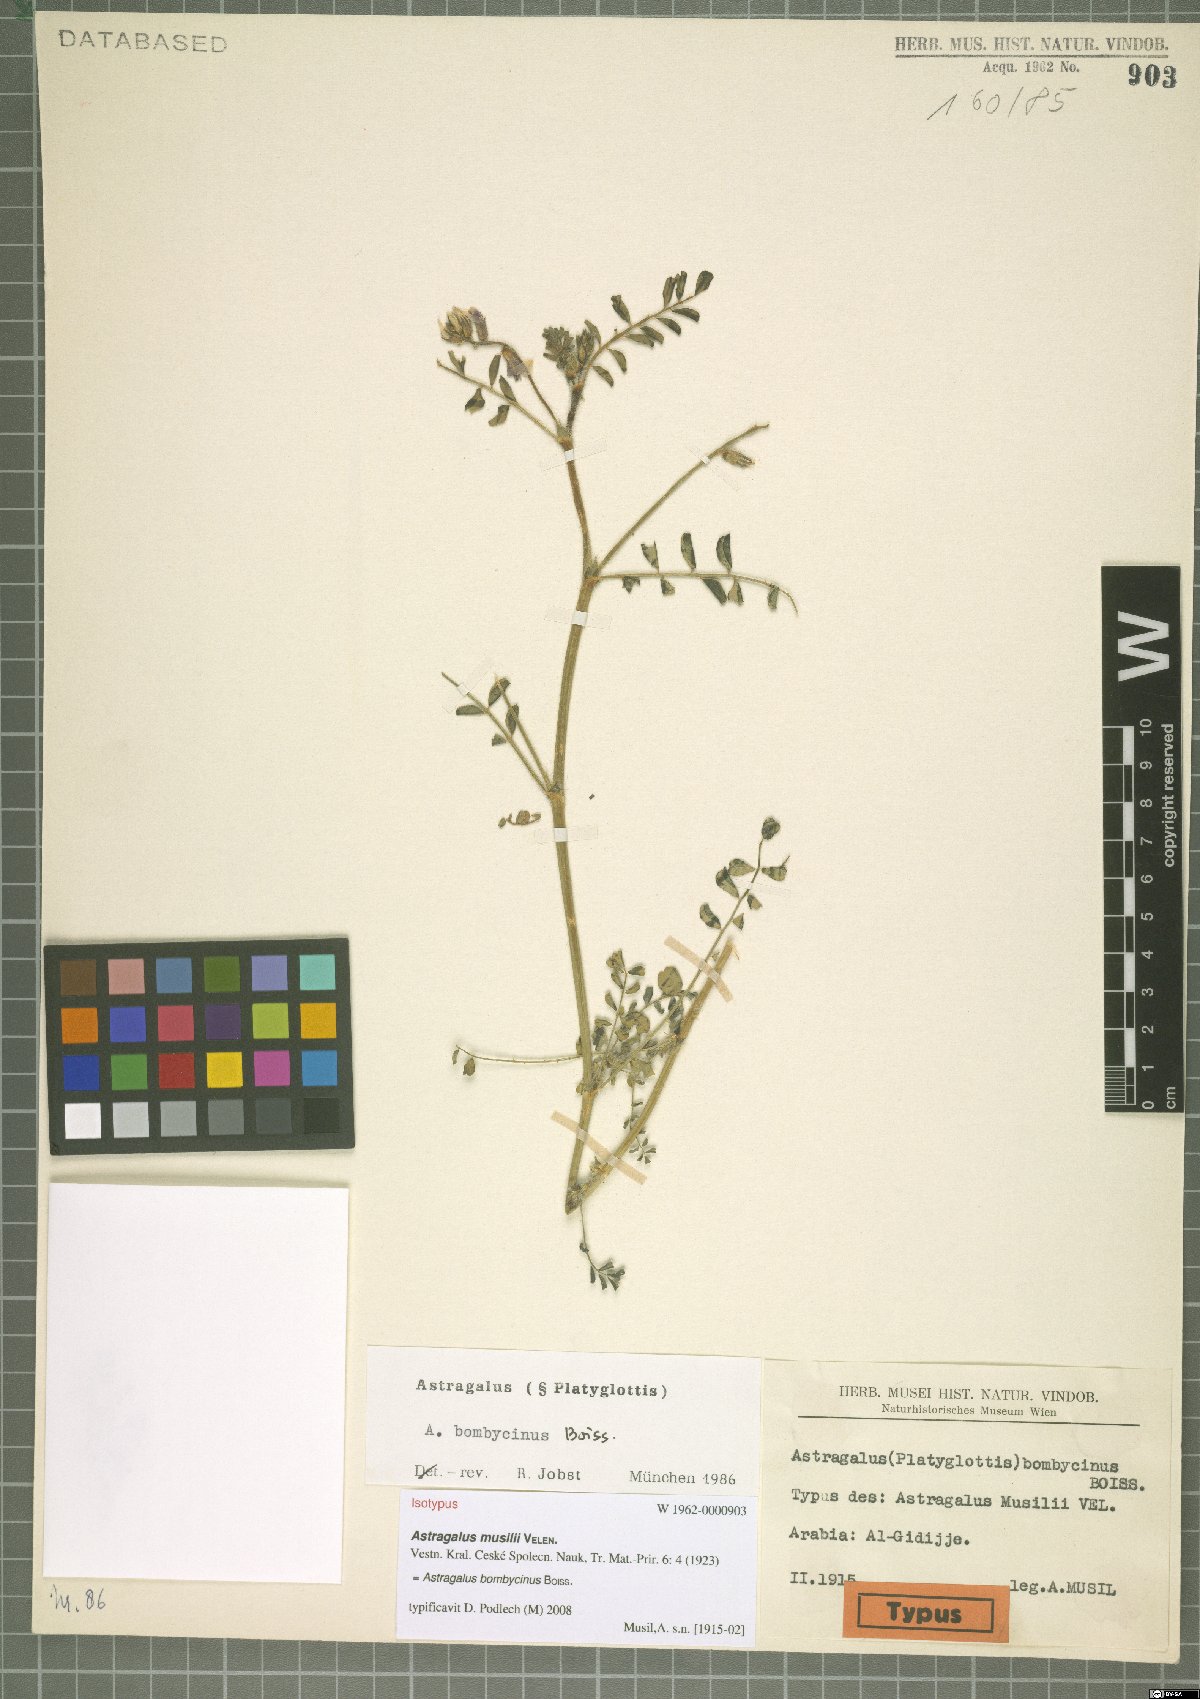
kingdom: Plantae
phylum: Tracheophyta
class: Magnoliopsida
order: Fabales
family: Fabaceae
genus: Astragalus
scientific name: Astragalus bombycinus
